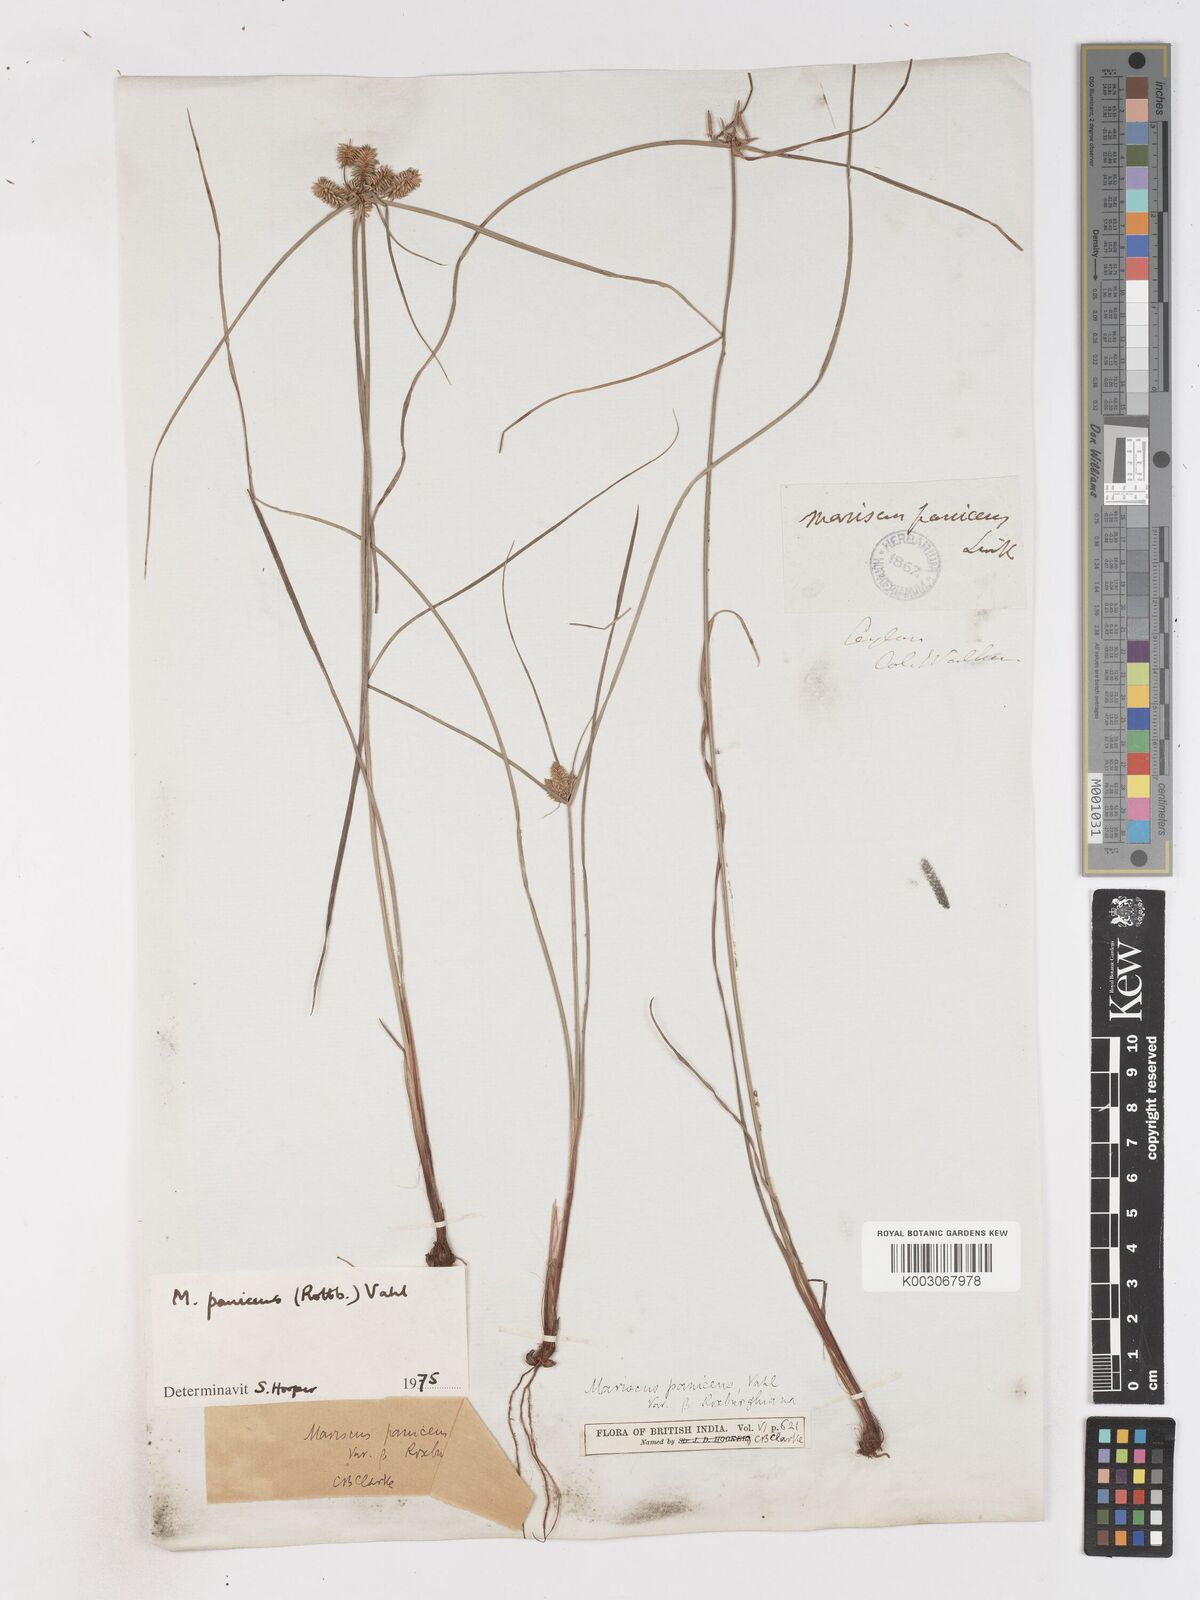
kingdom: Plantae
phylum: Tracheophyta
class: Liliopsida
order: Poales
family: Cyperaceae
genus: Cyperus
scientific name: Cyperus paniceus
